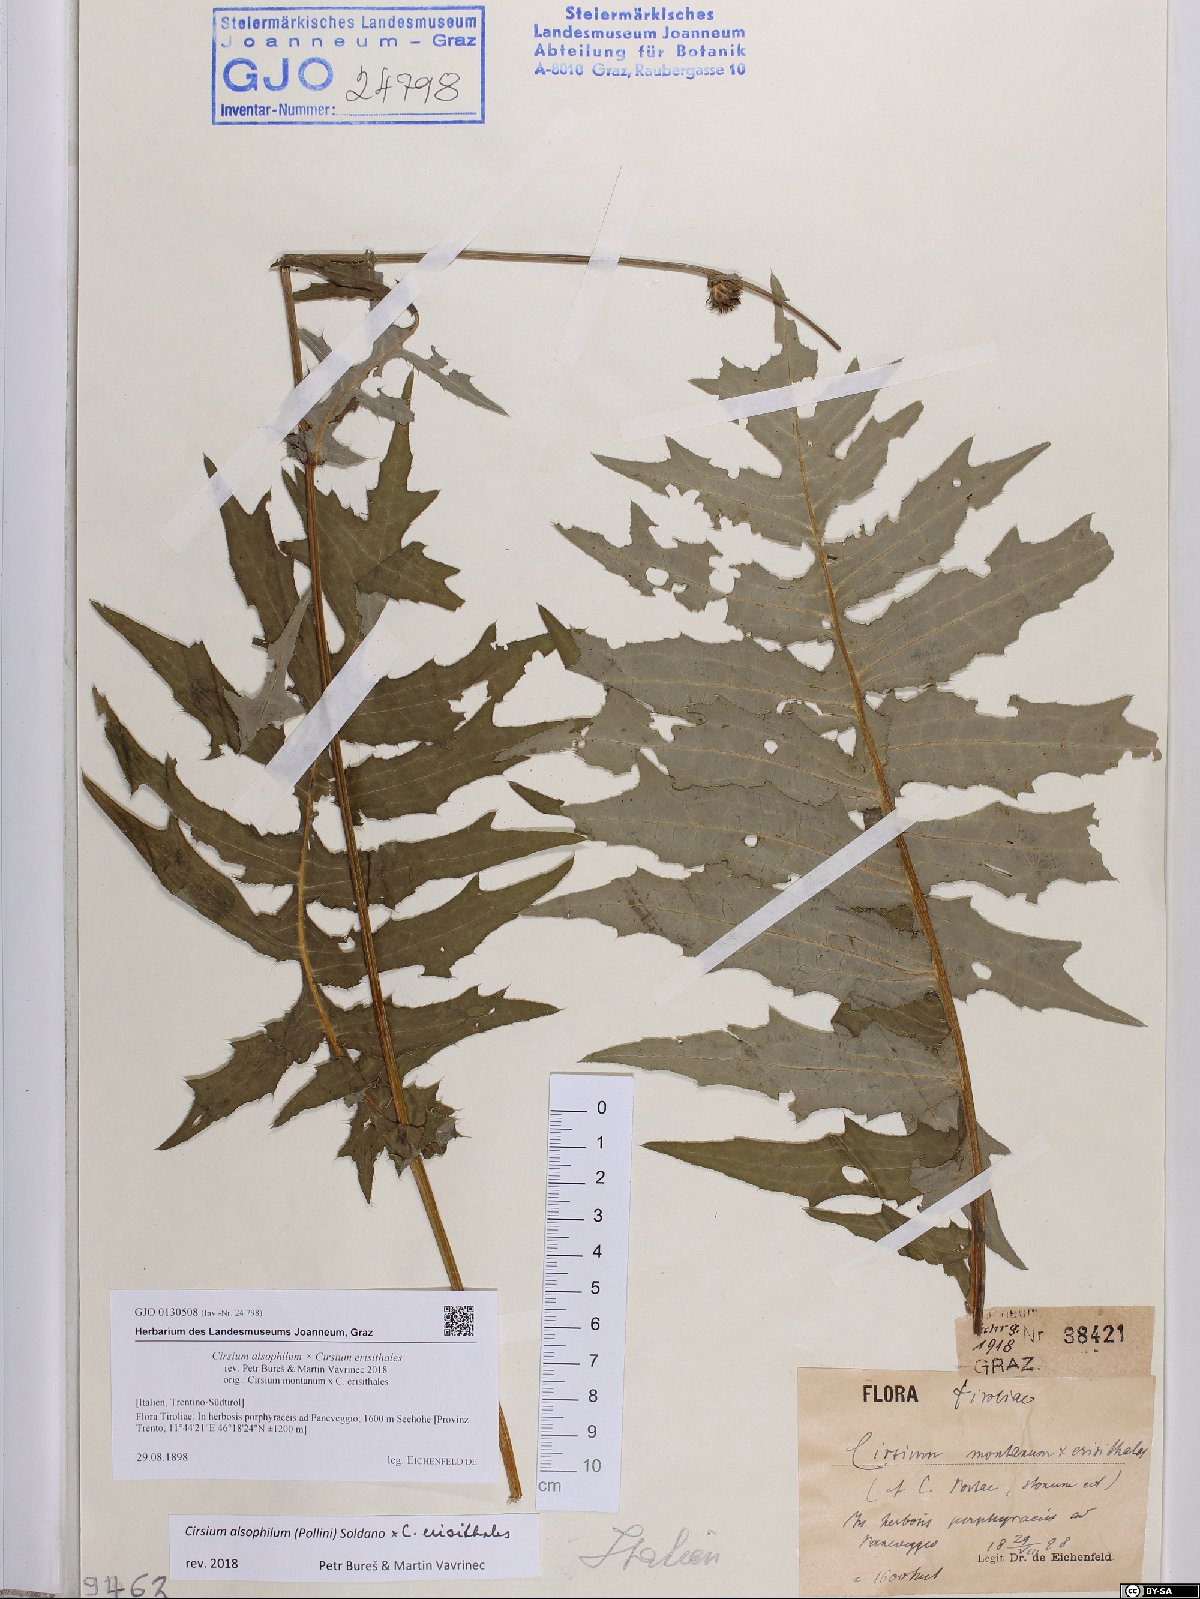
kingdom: Plantae
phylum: Tracheophyta
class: Magnoliopsida
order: Asterales
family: Asteraceae
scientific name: Asteraceae
